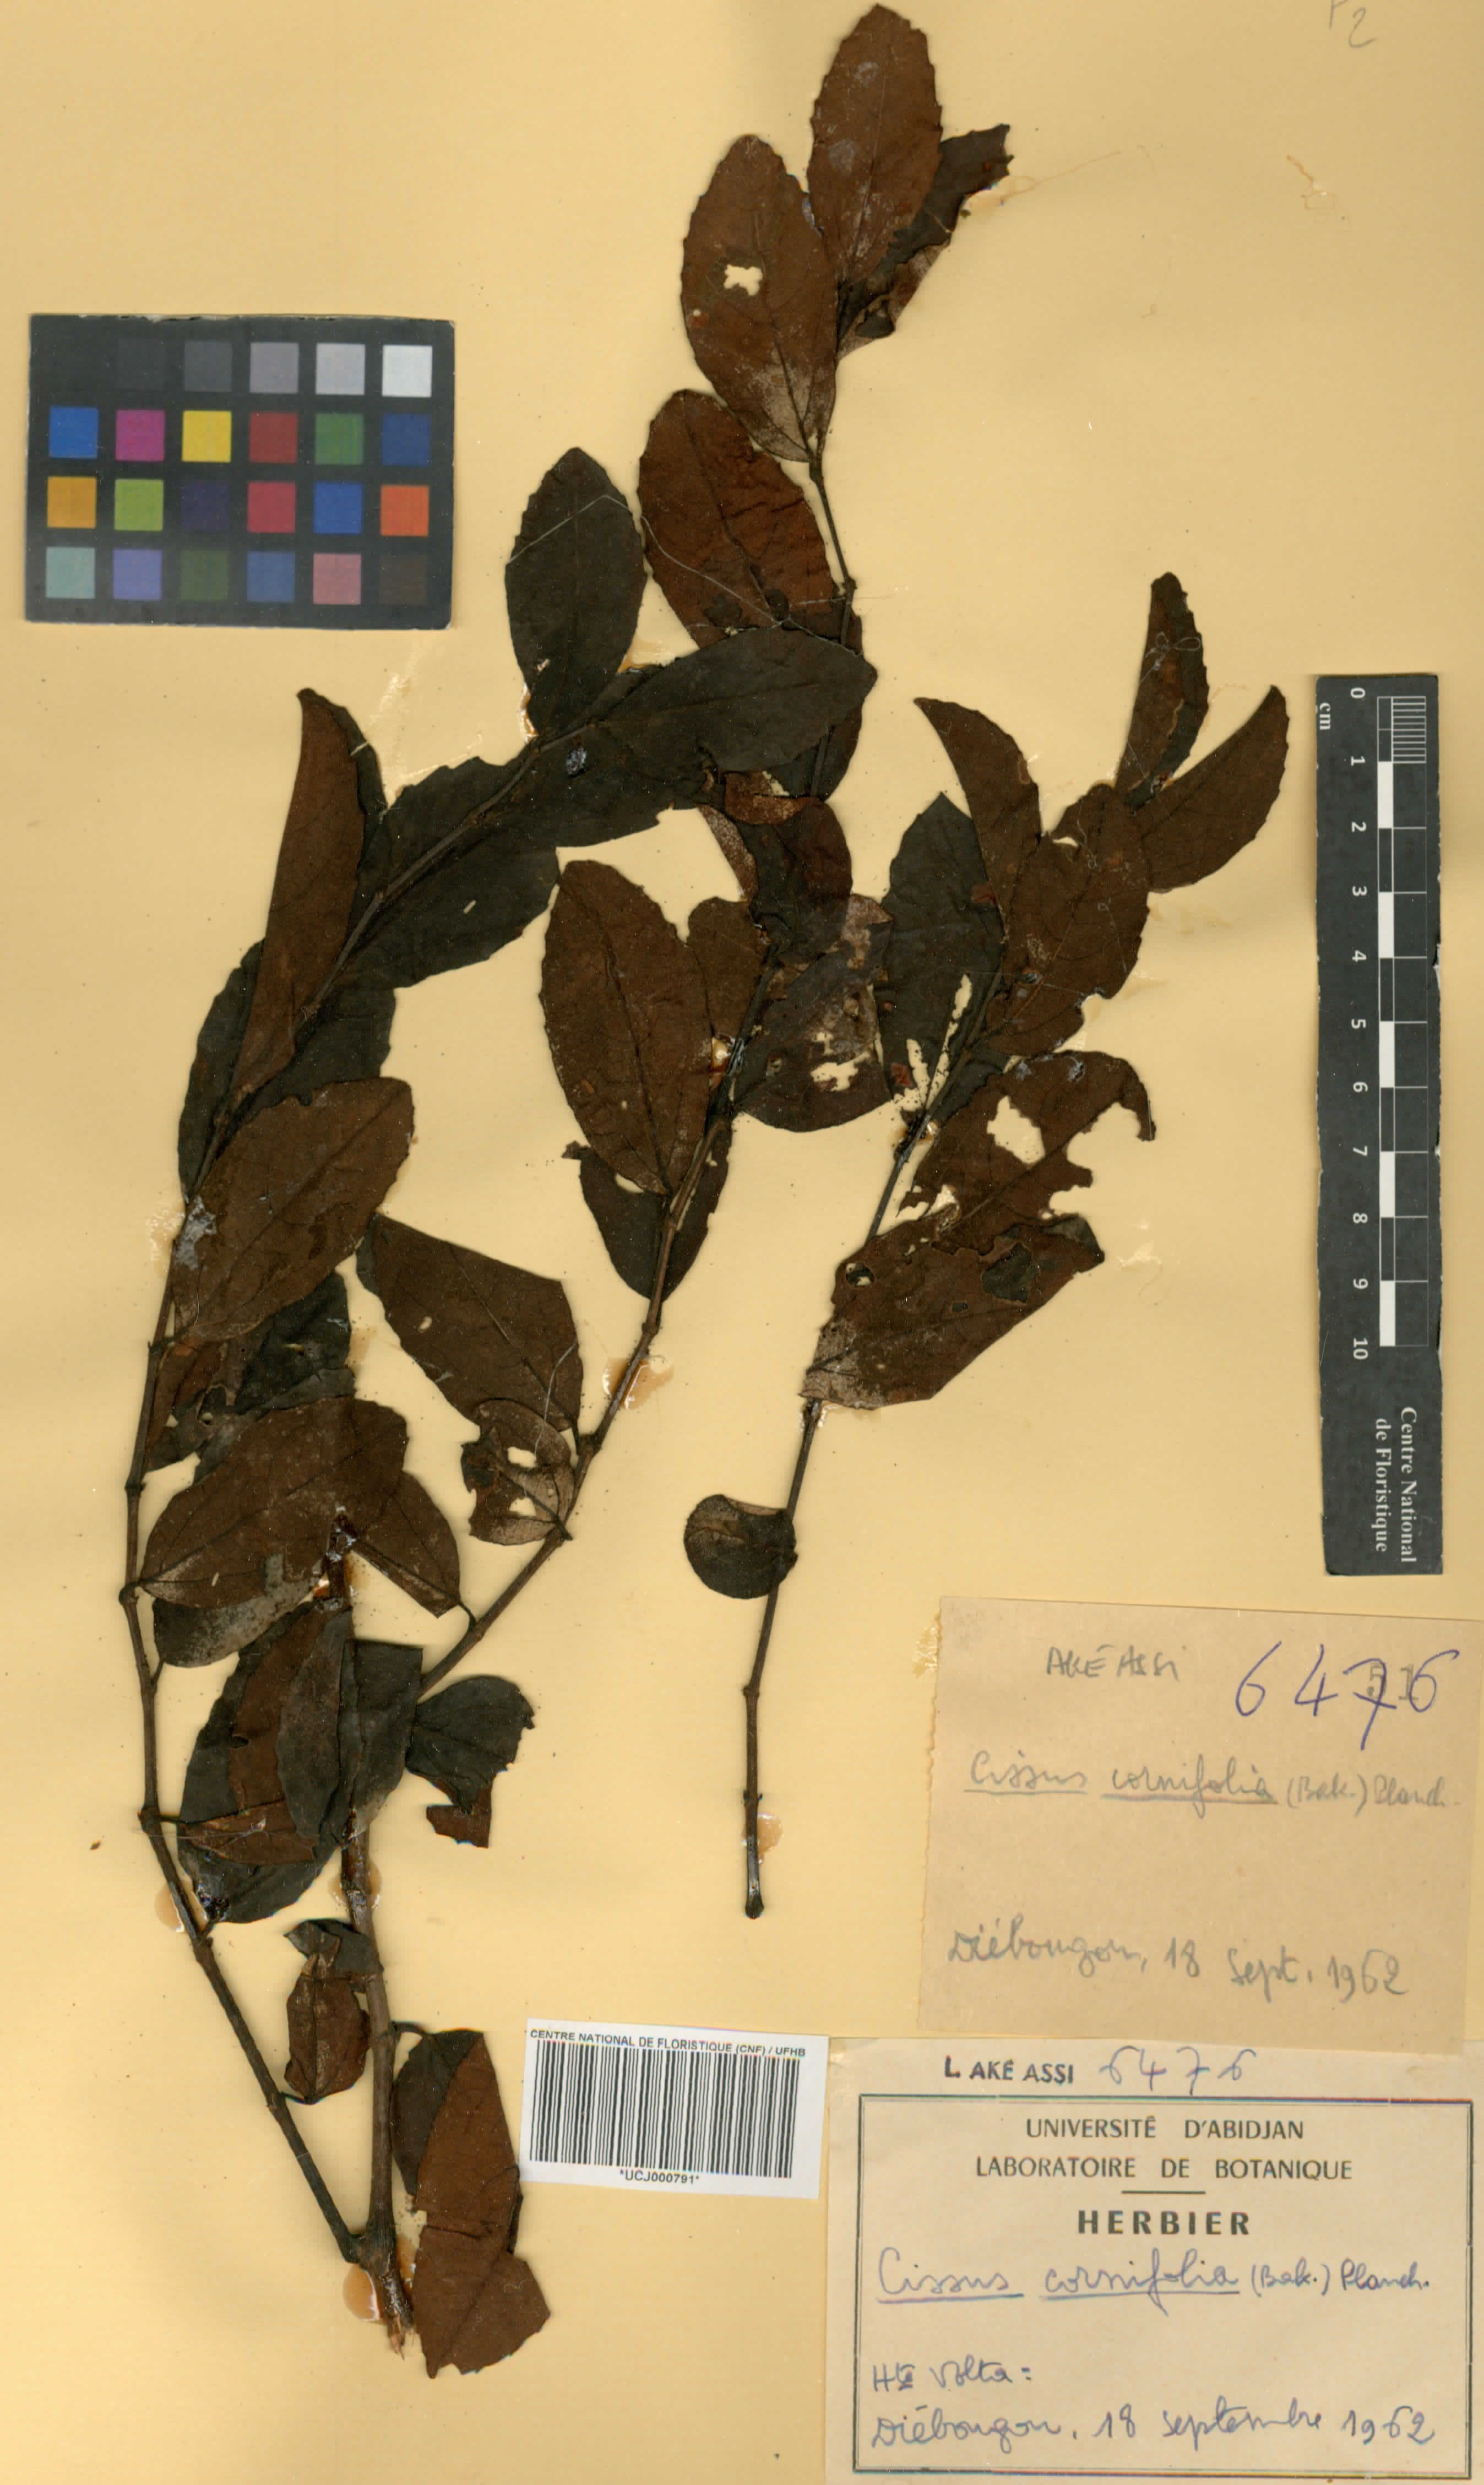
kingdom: Plantae
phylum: Tracheophyta
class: Magnoliopsida
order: Vitales
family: Vitaceae
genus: Cissus
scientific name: Cissus cornifolia
